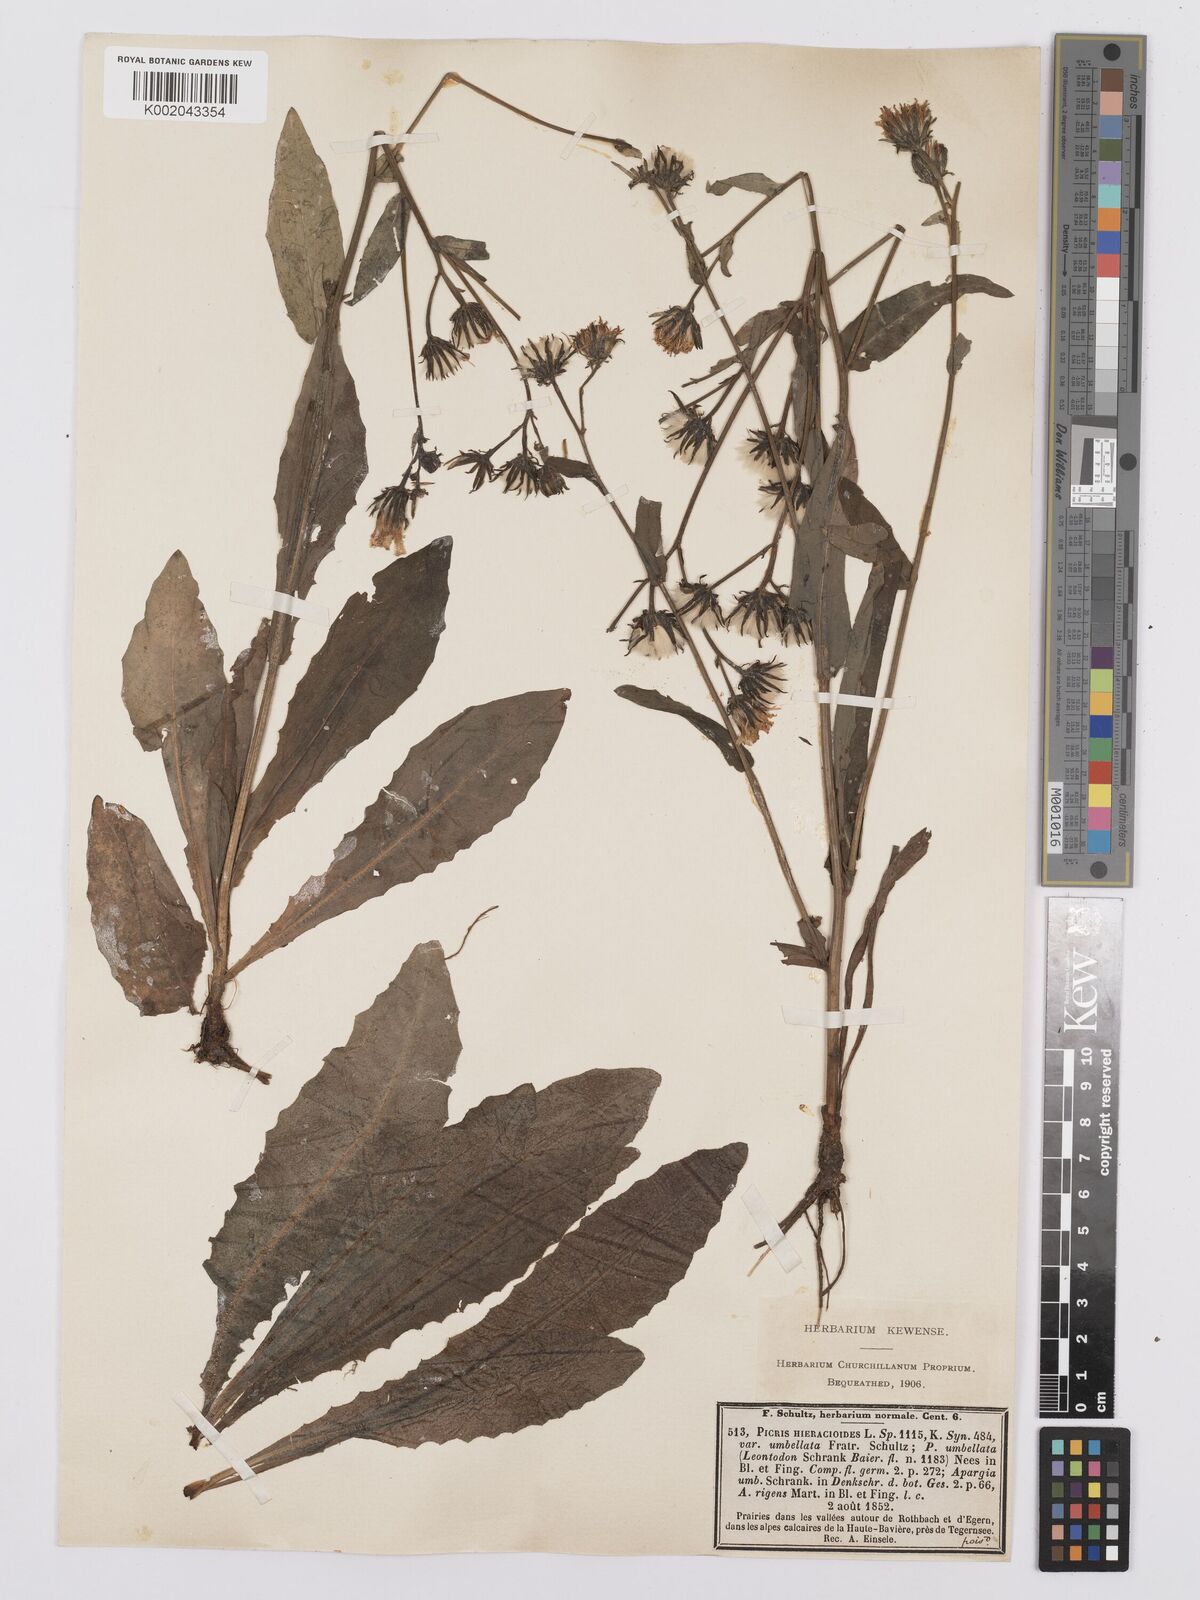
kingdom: Plantae
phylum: Tracheophyta
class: Magnoliopsida
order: Asterales
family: Asteraceae
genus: Picris
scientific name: Picris hieracioides
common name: Hawkweed oxtongue
